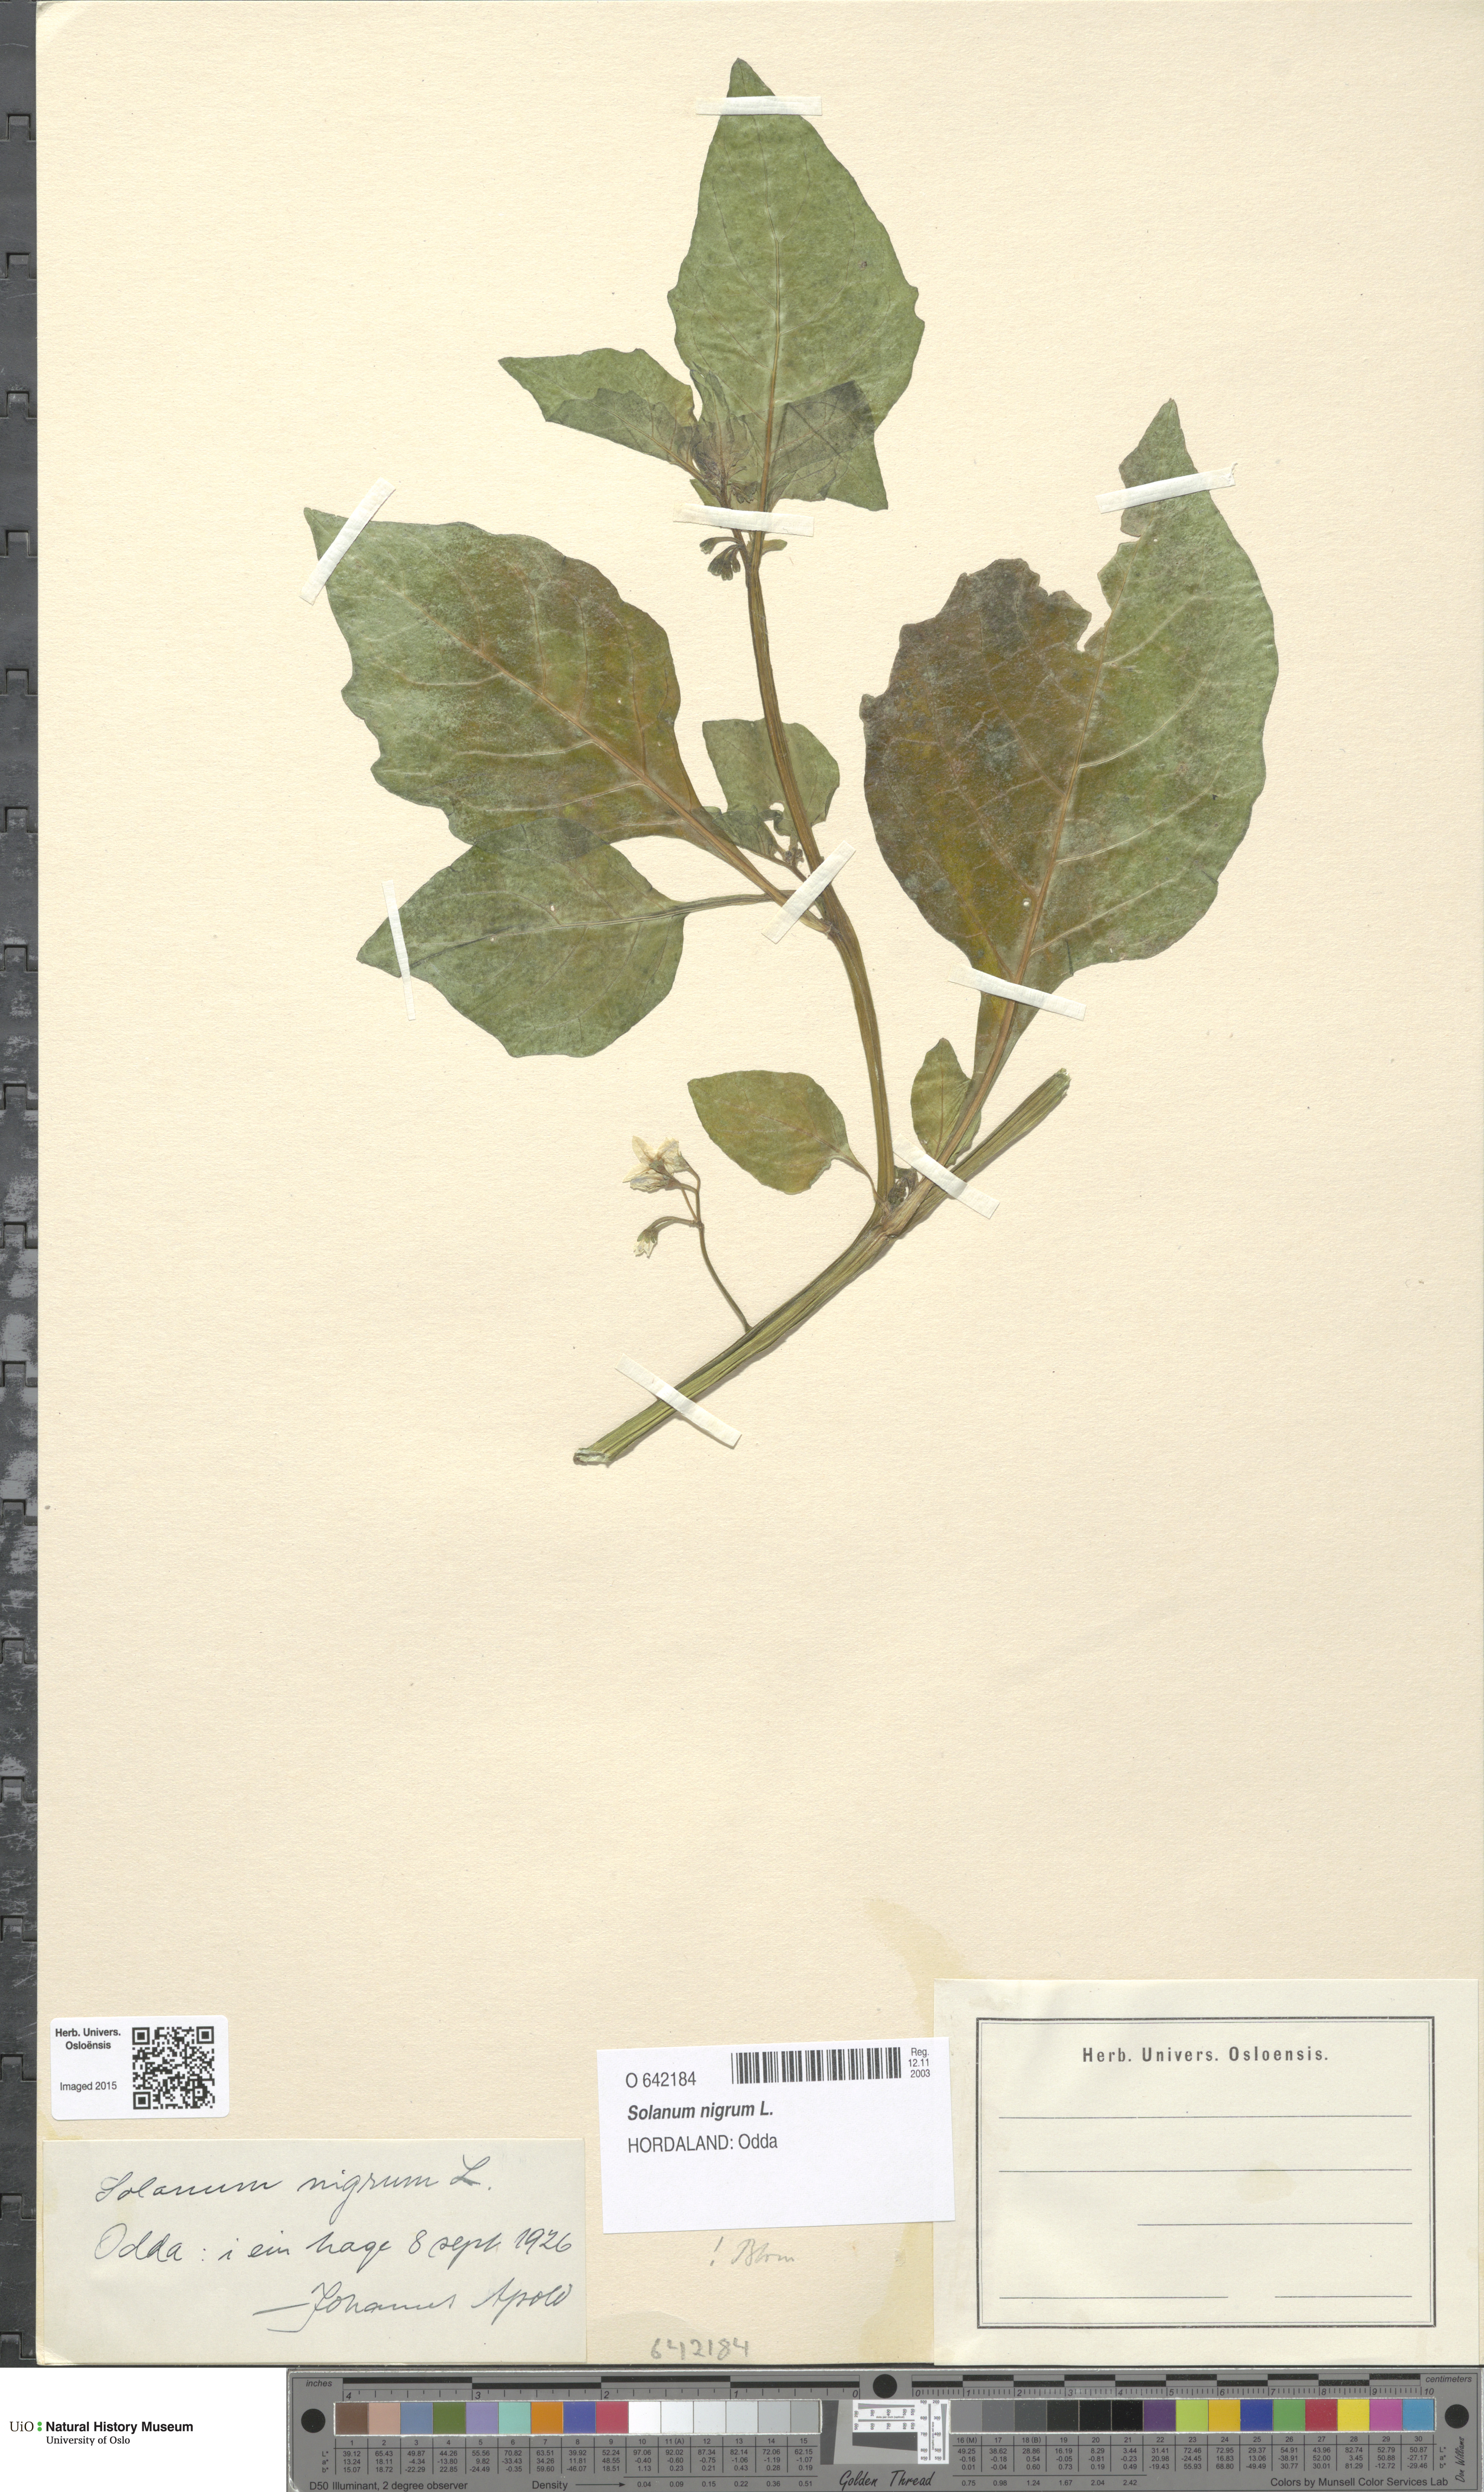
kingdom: Plantae
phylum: Tracheophyta
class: Magnoliopsida
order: Solanales
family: Solanaceae
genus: Solanum
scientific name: Solanum nigrum
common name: Black nightshade
